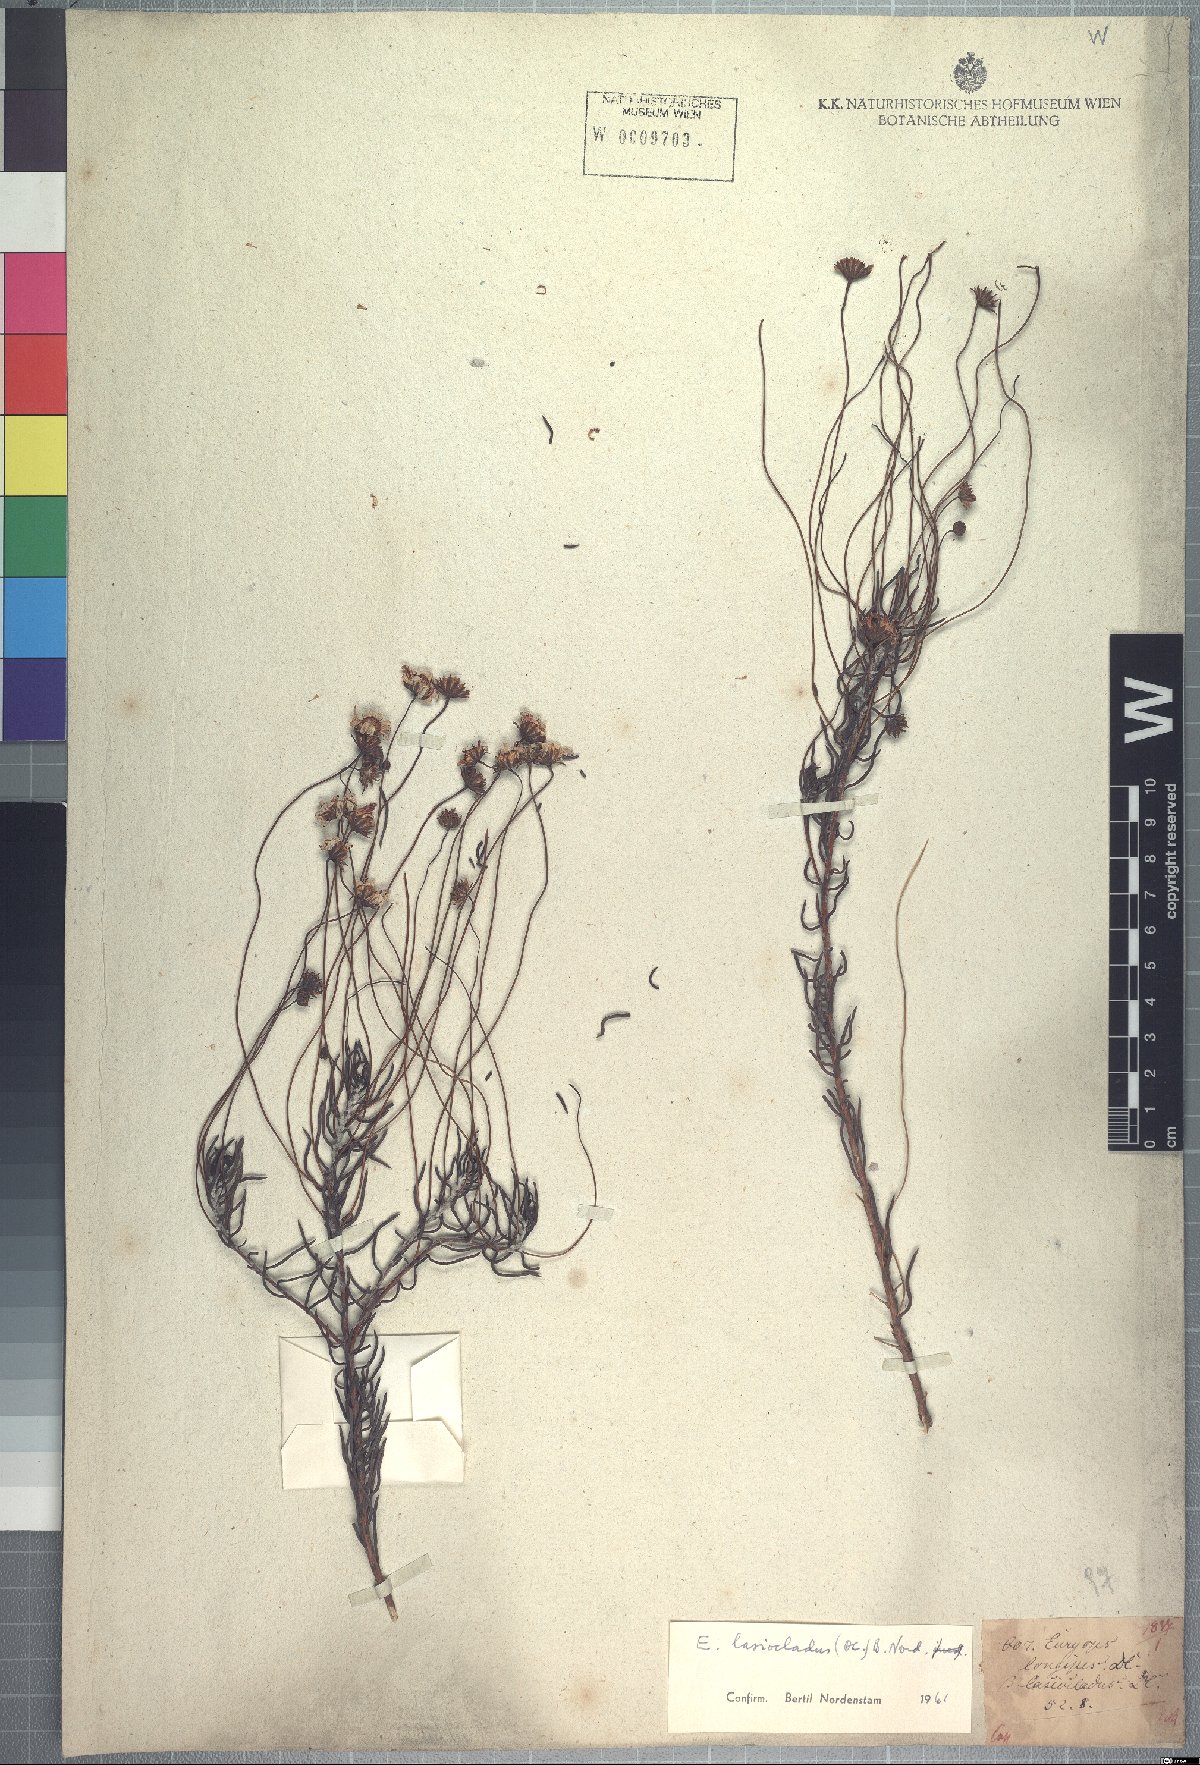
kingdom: Plantae
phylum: Tracheophyta
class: Magnoliopsida
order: Asterales
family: Asteraceae
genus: Euryops
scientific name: Euryops lasiocladus
